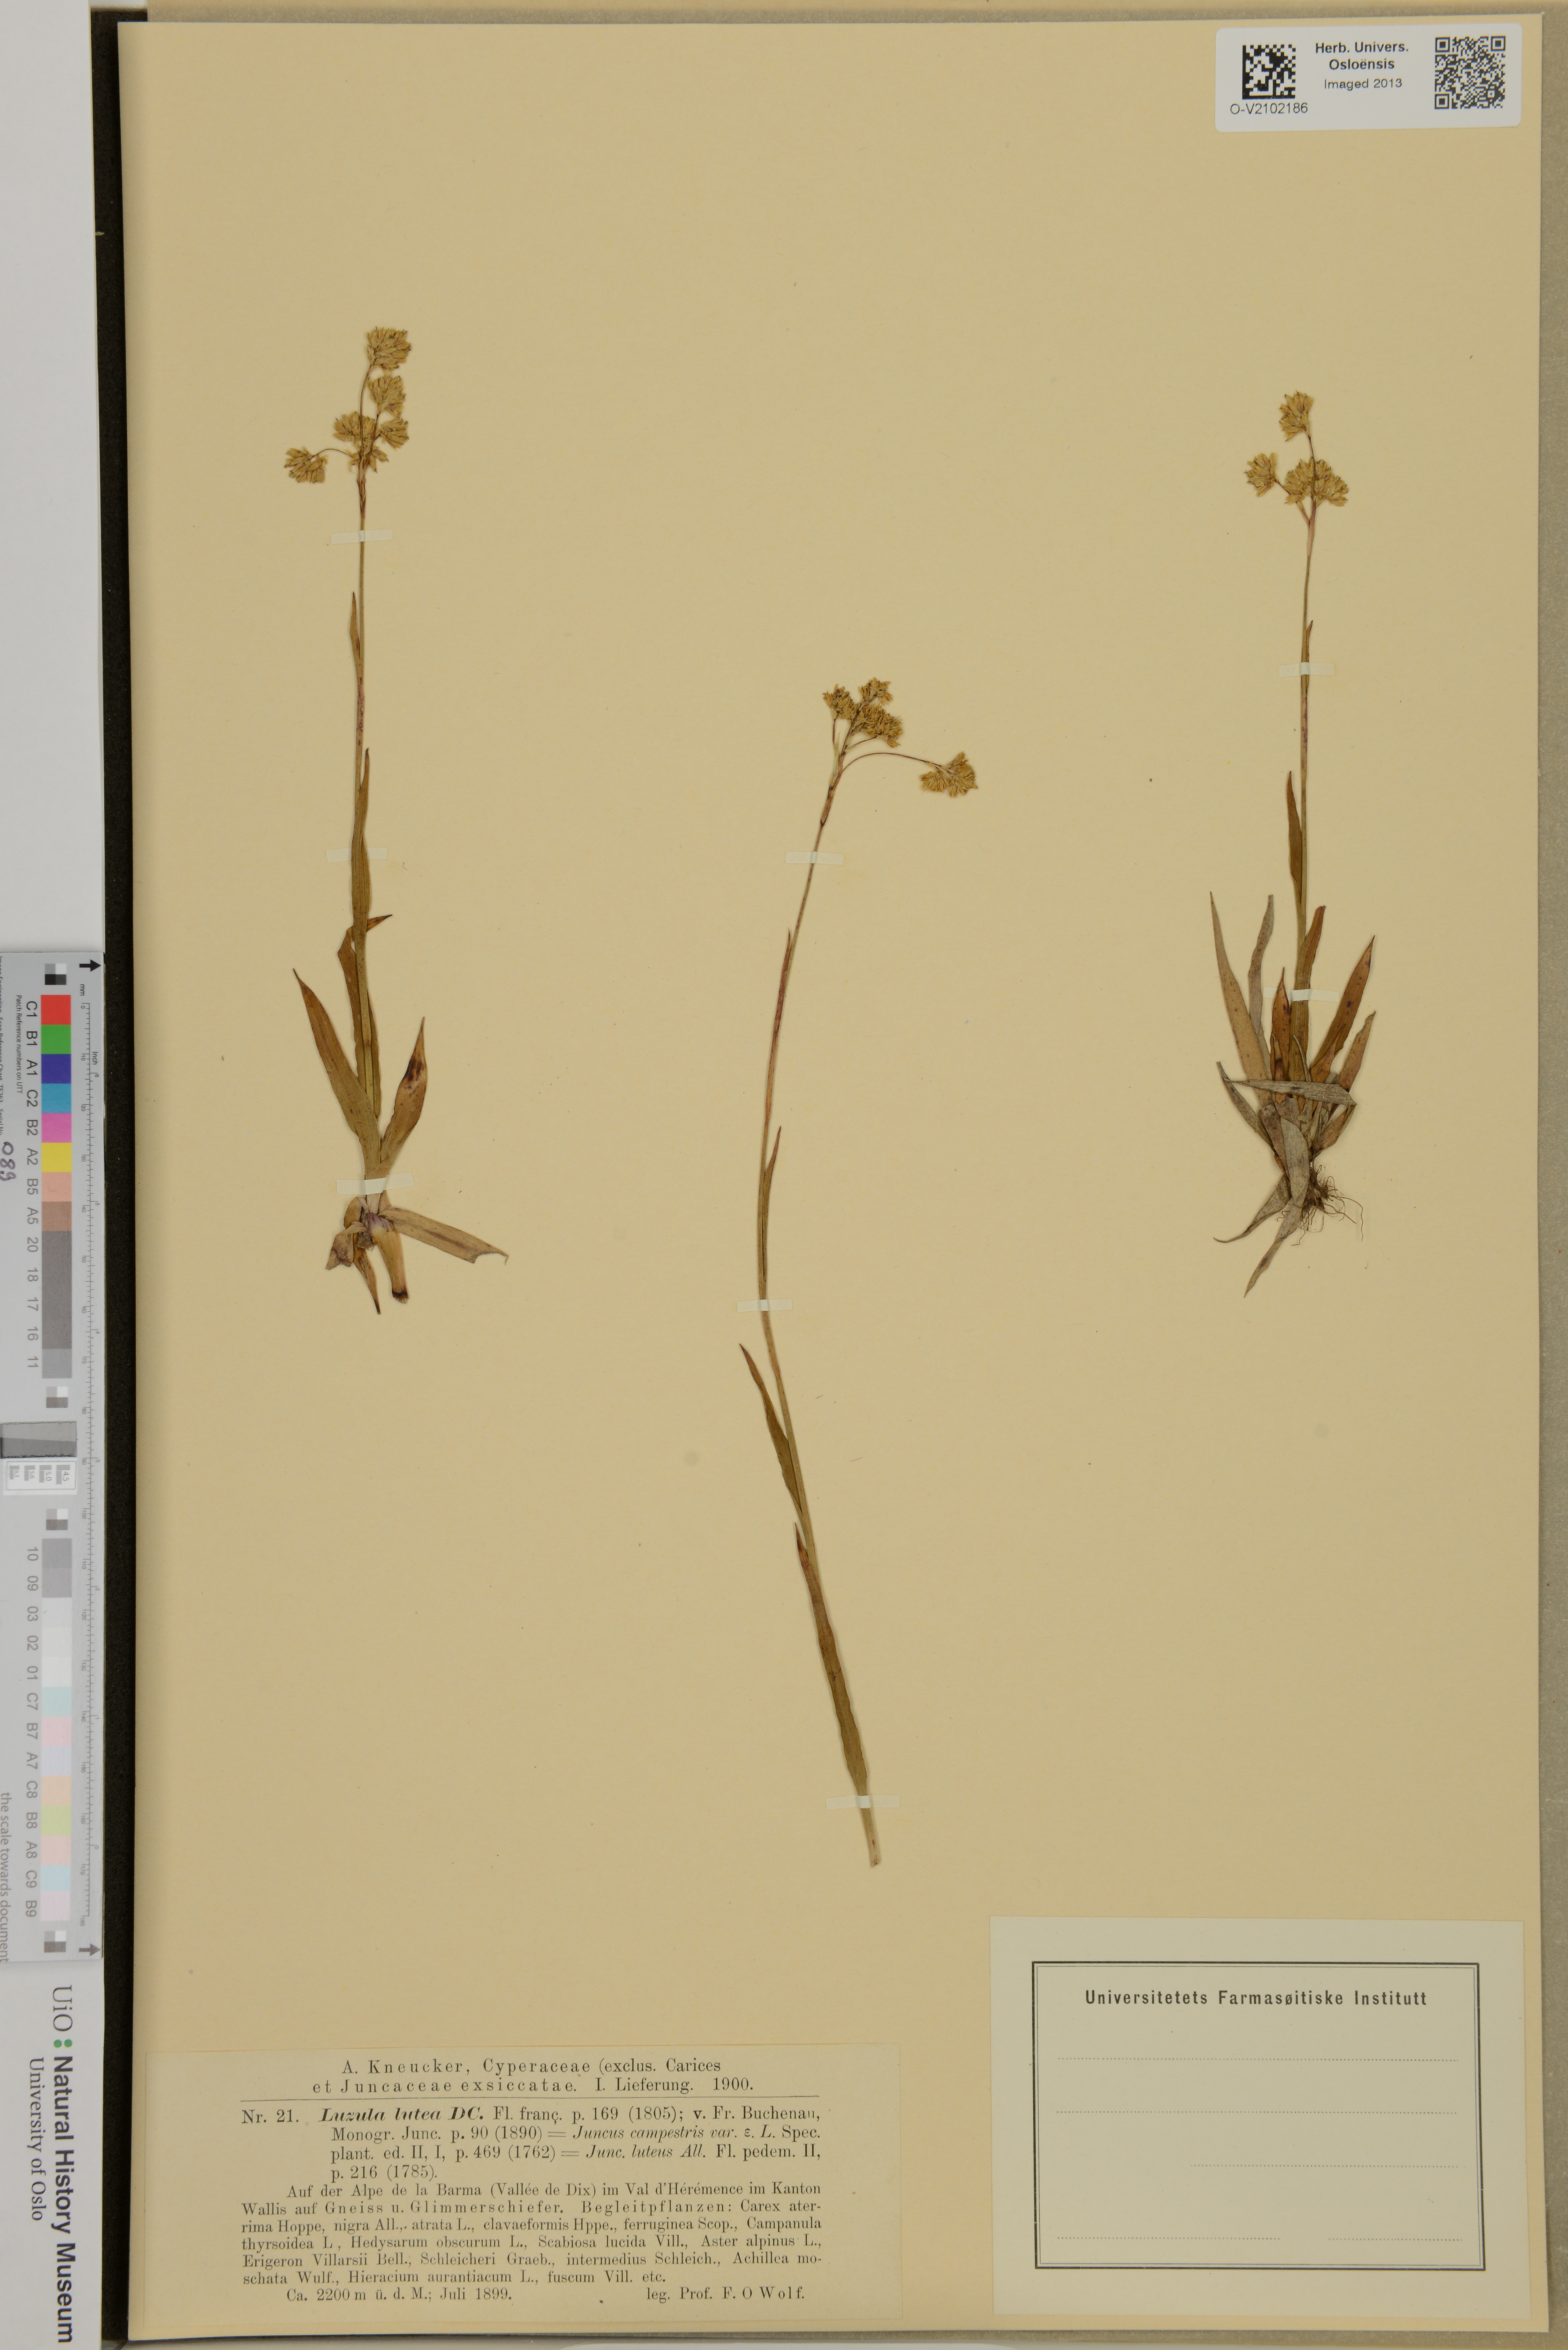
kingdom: Plantae
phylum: Tracheophyta
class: Liliopsida
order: Poales
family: Juncaceae
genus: Luzula
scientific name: Luzula lutea
